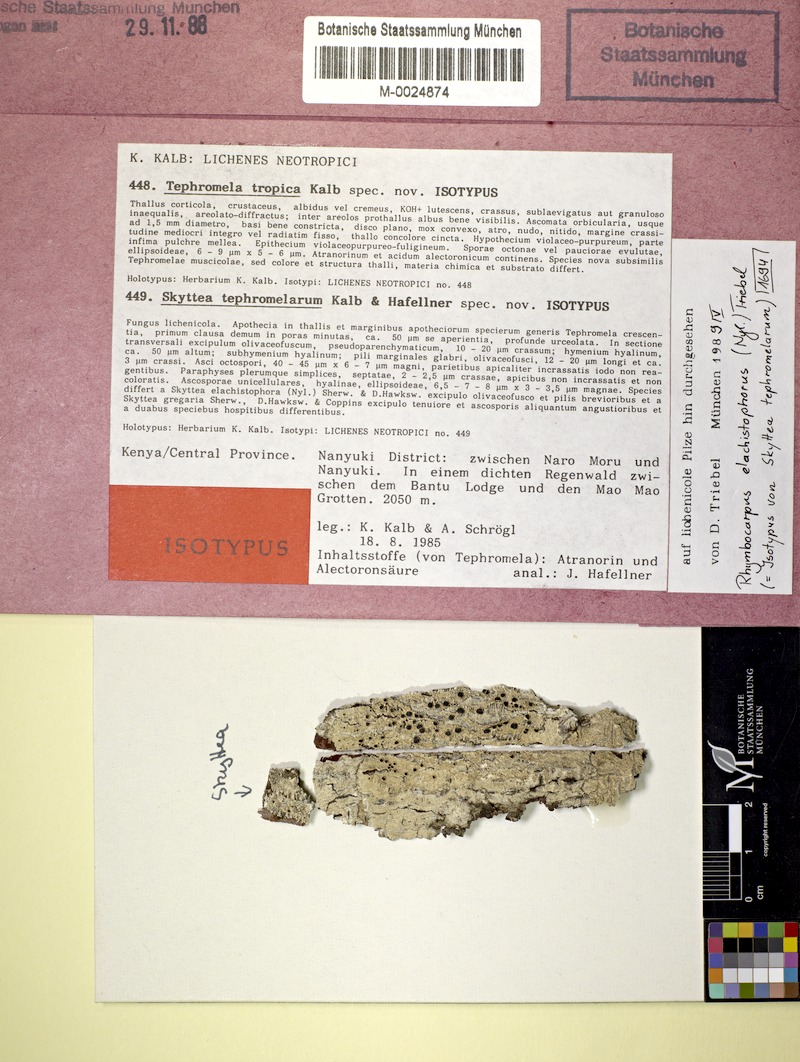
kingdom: Fungi
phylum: Ascomycota
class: Lecanoromycetes
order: Lecanorales
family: Tephromelataceae
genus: Tephromela
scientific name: Tephromela tropica
